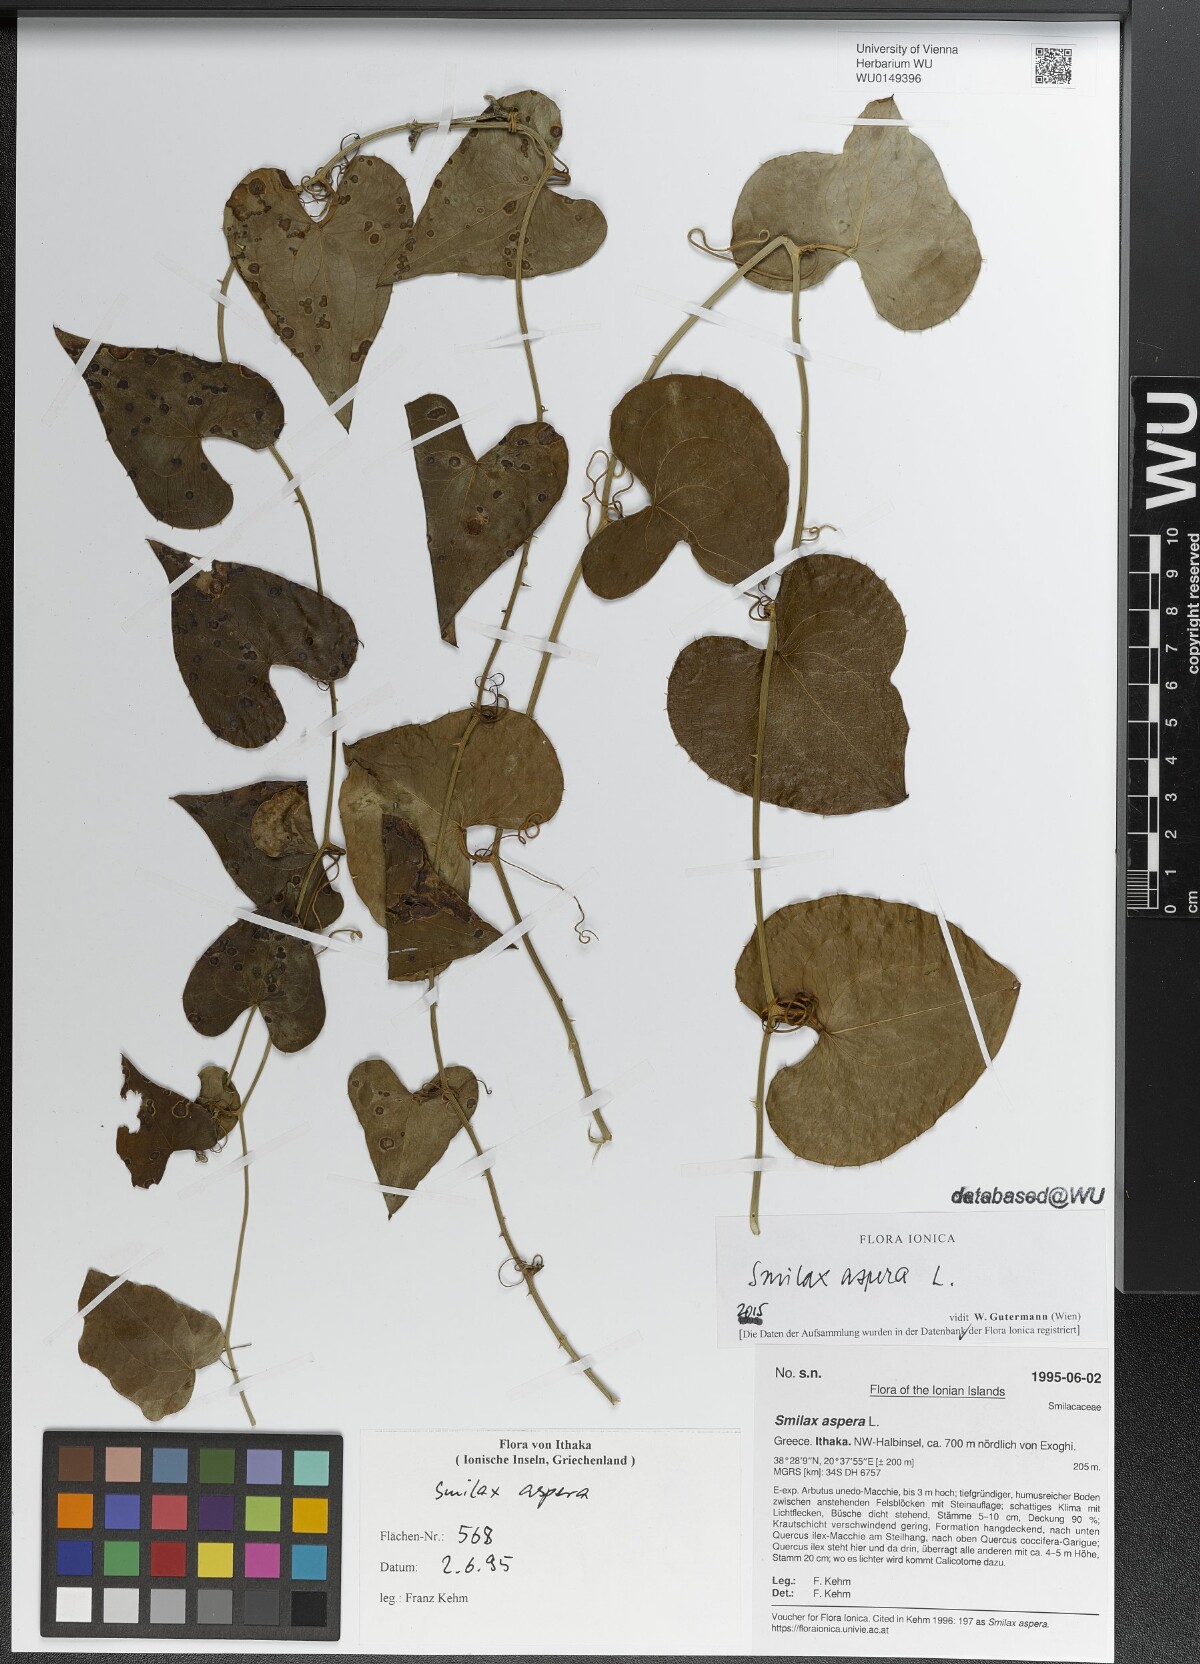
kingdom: Plantae
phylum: Tracheophyta
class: Liliopsida
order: Liliales
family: Smilacaceae
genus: Smilax
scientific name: Smilax aspera
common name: Common smilax
